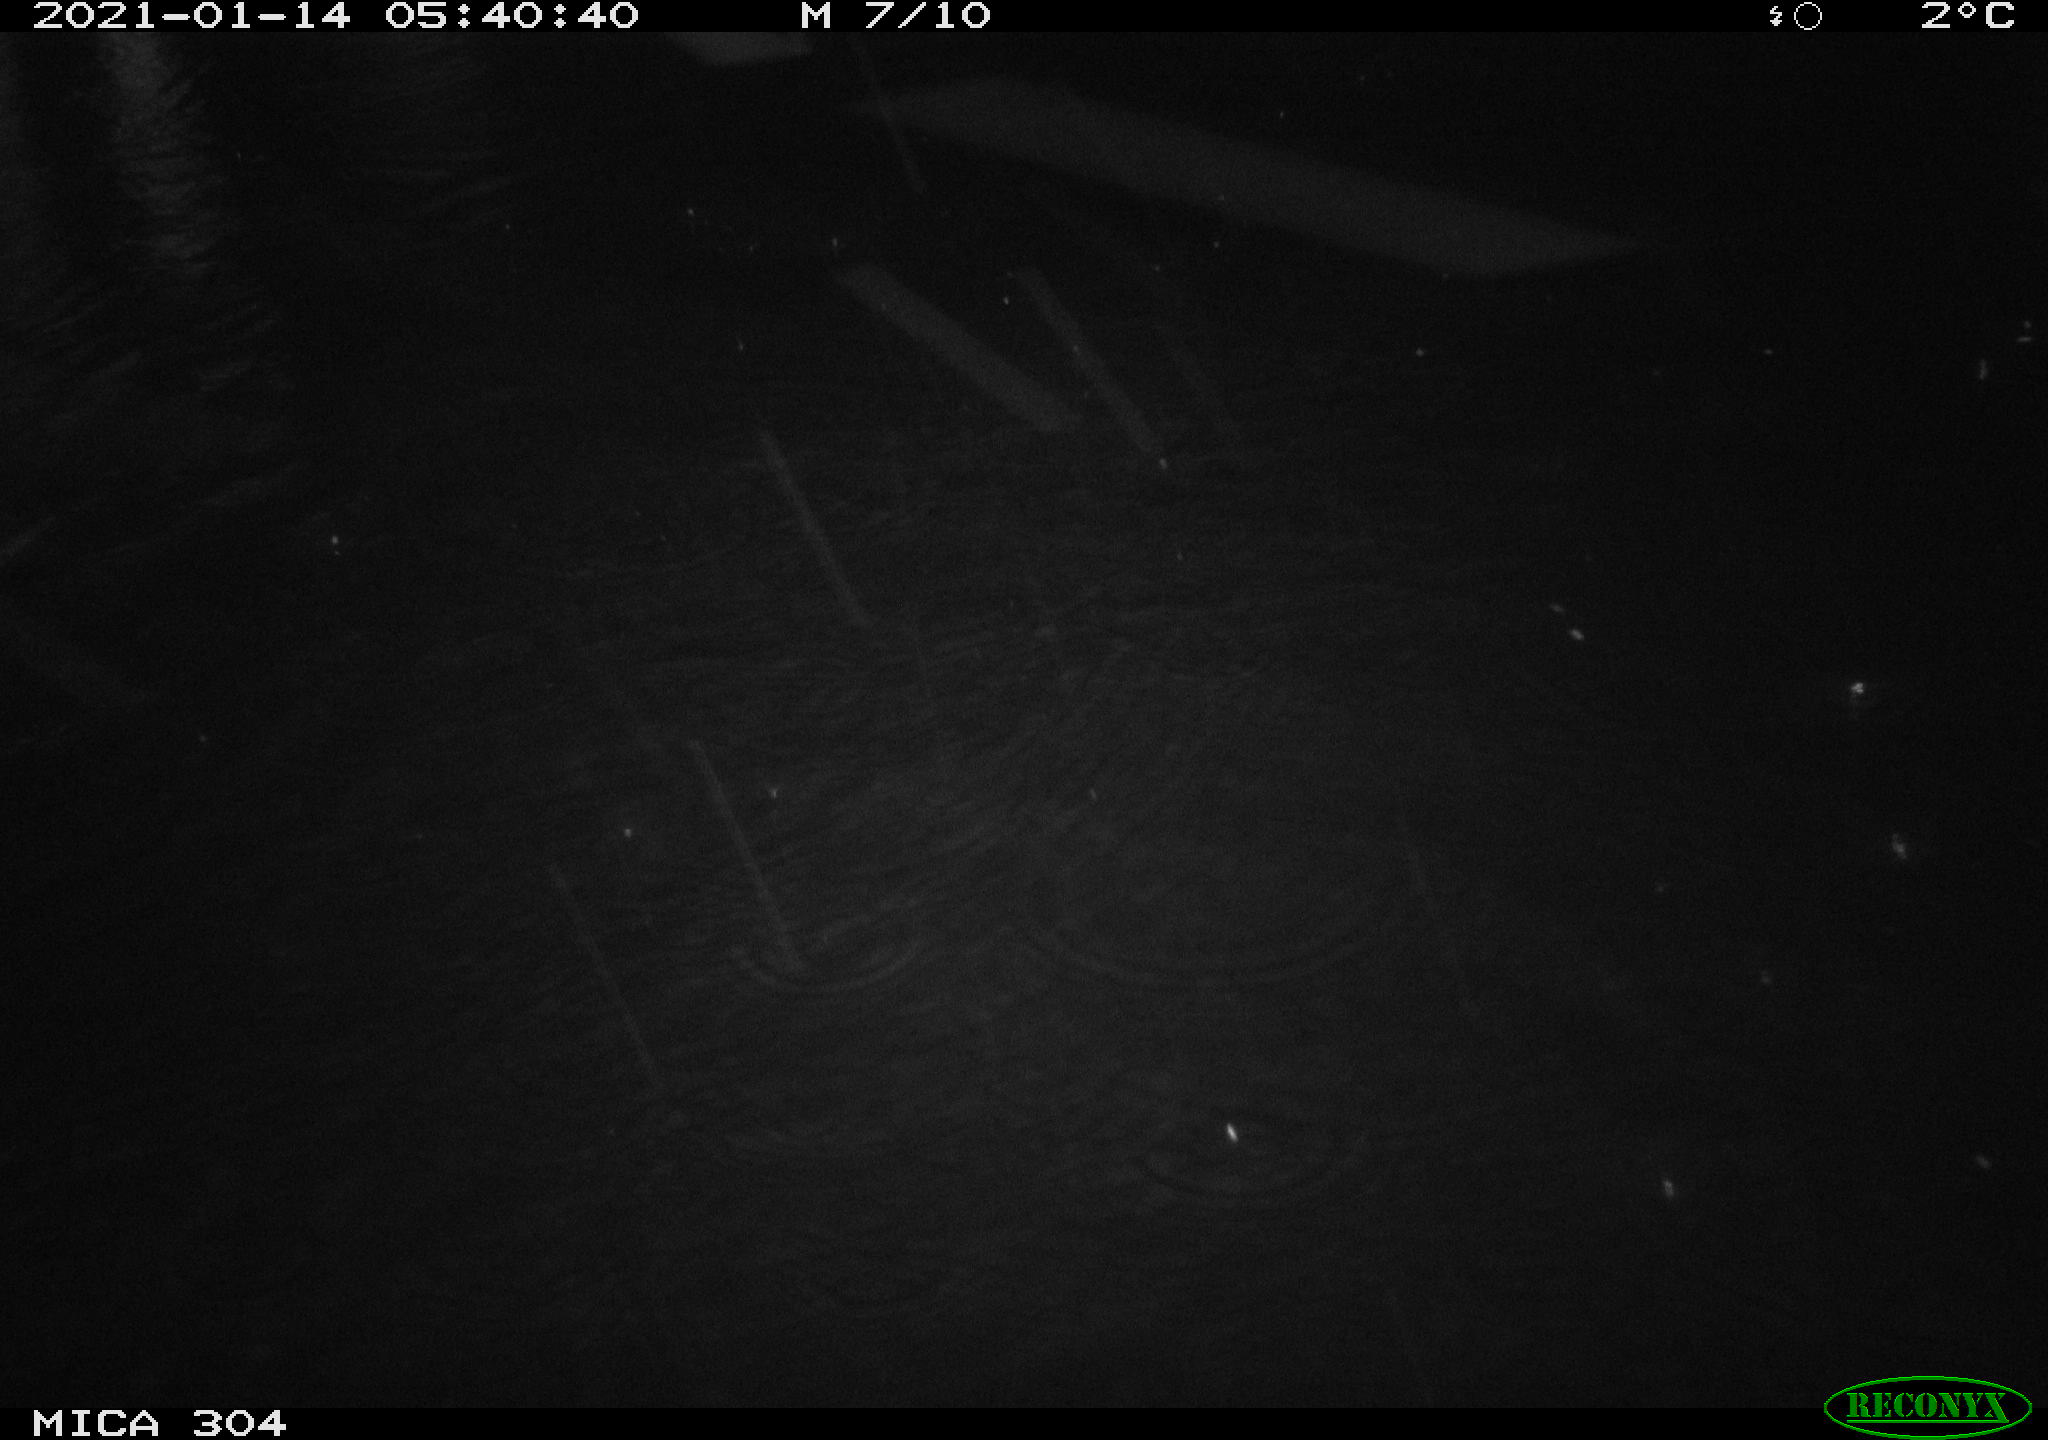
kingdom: Animalia
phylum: Chordata
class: Mammalia
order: Rodentia
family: Muridae
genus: Rattus
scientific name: Rattus norvegicus
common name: Brown rat
